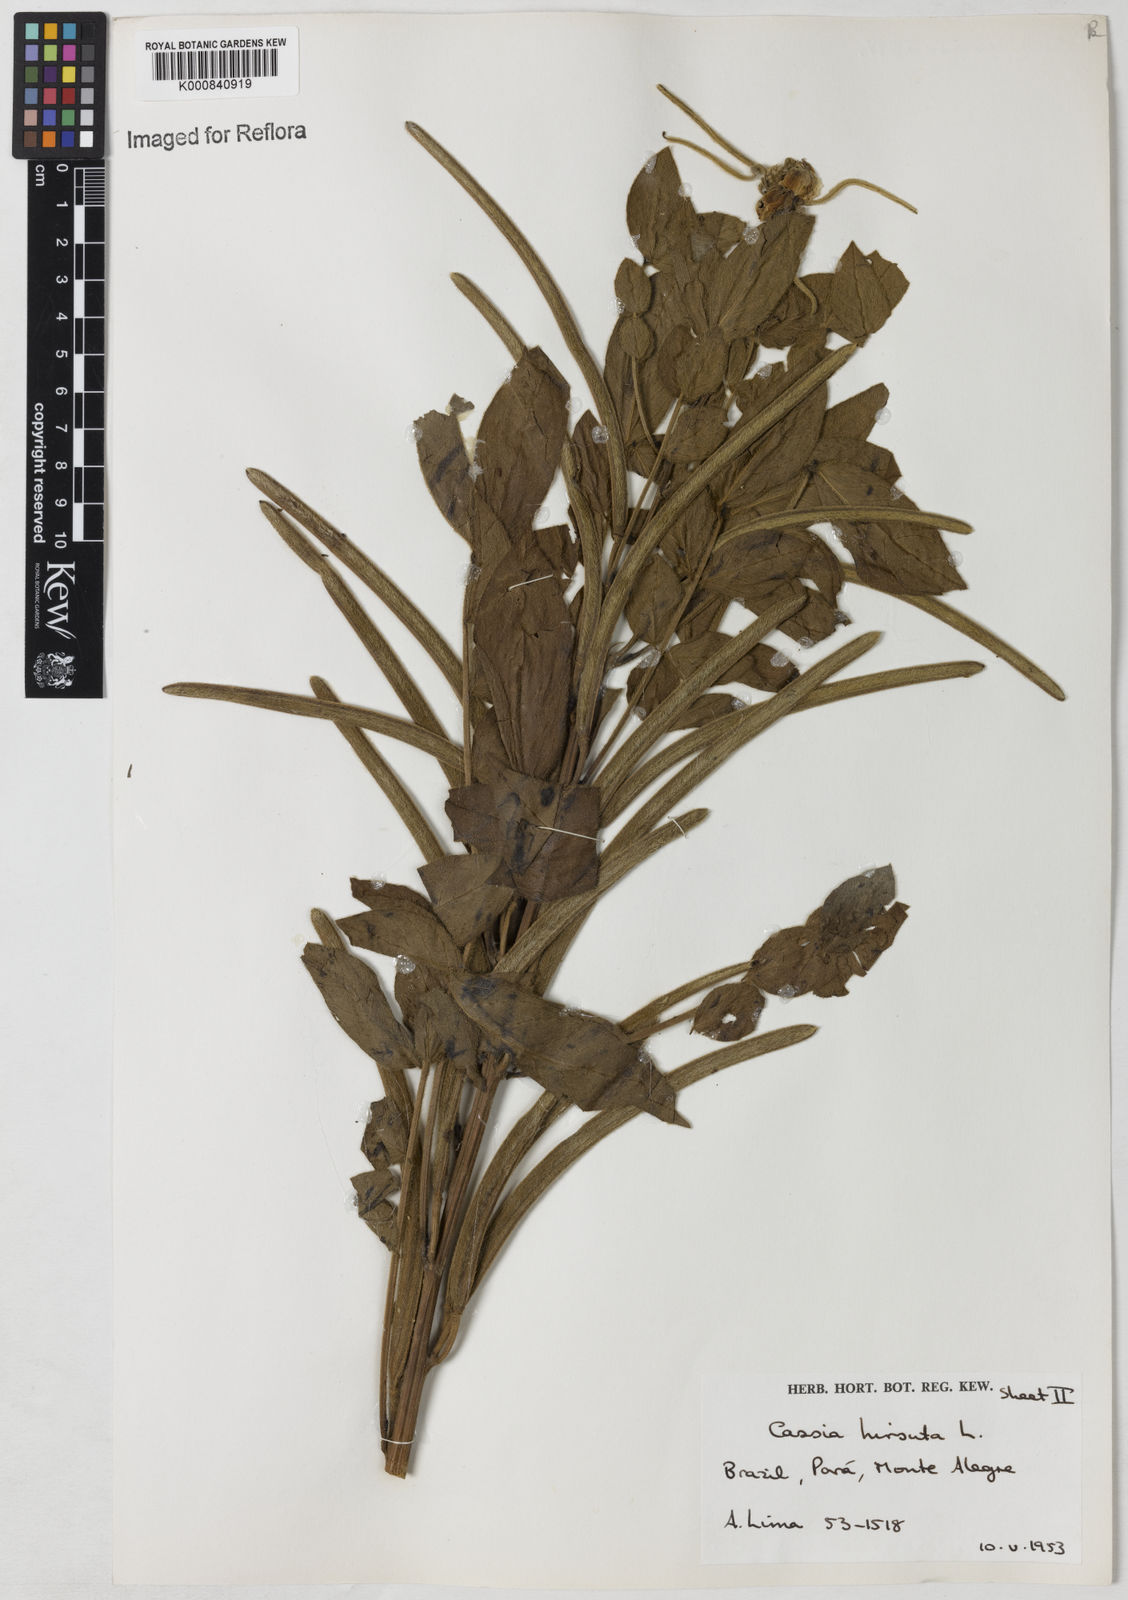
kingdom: Plantae
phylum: Tracheophyta
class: Magnoliopsida
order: Fabales
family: Fabaceae
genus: Senna
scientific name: Senna hirsuta
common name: Woolly senna
